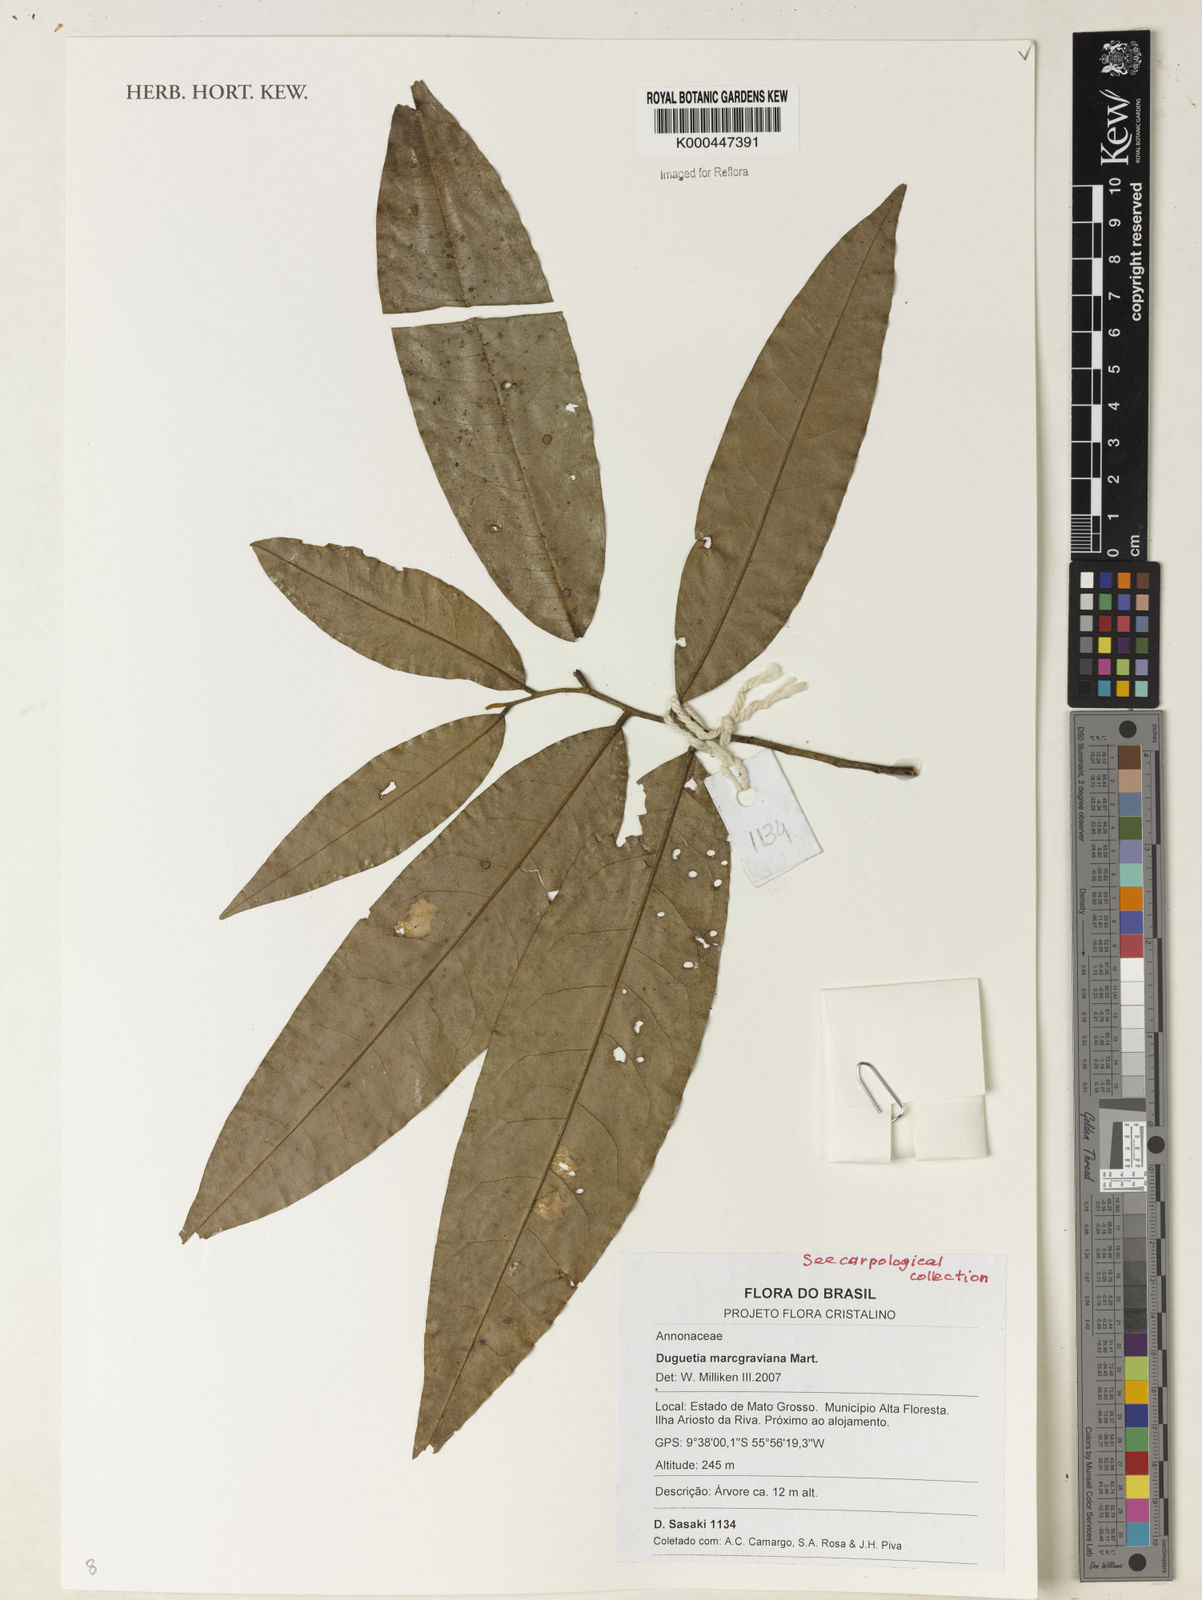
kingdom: Plantae
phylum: Tracheophyta
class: Magnoliopsida
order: Magnoliales
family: Annonaceae
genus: Duguetia
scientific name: Duguetia marcgraviana
